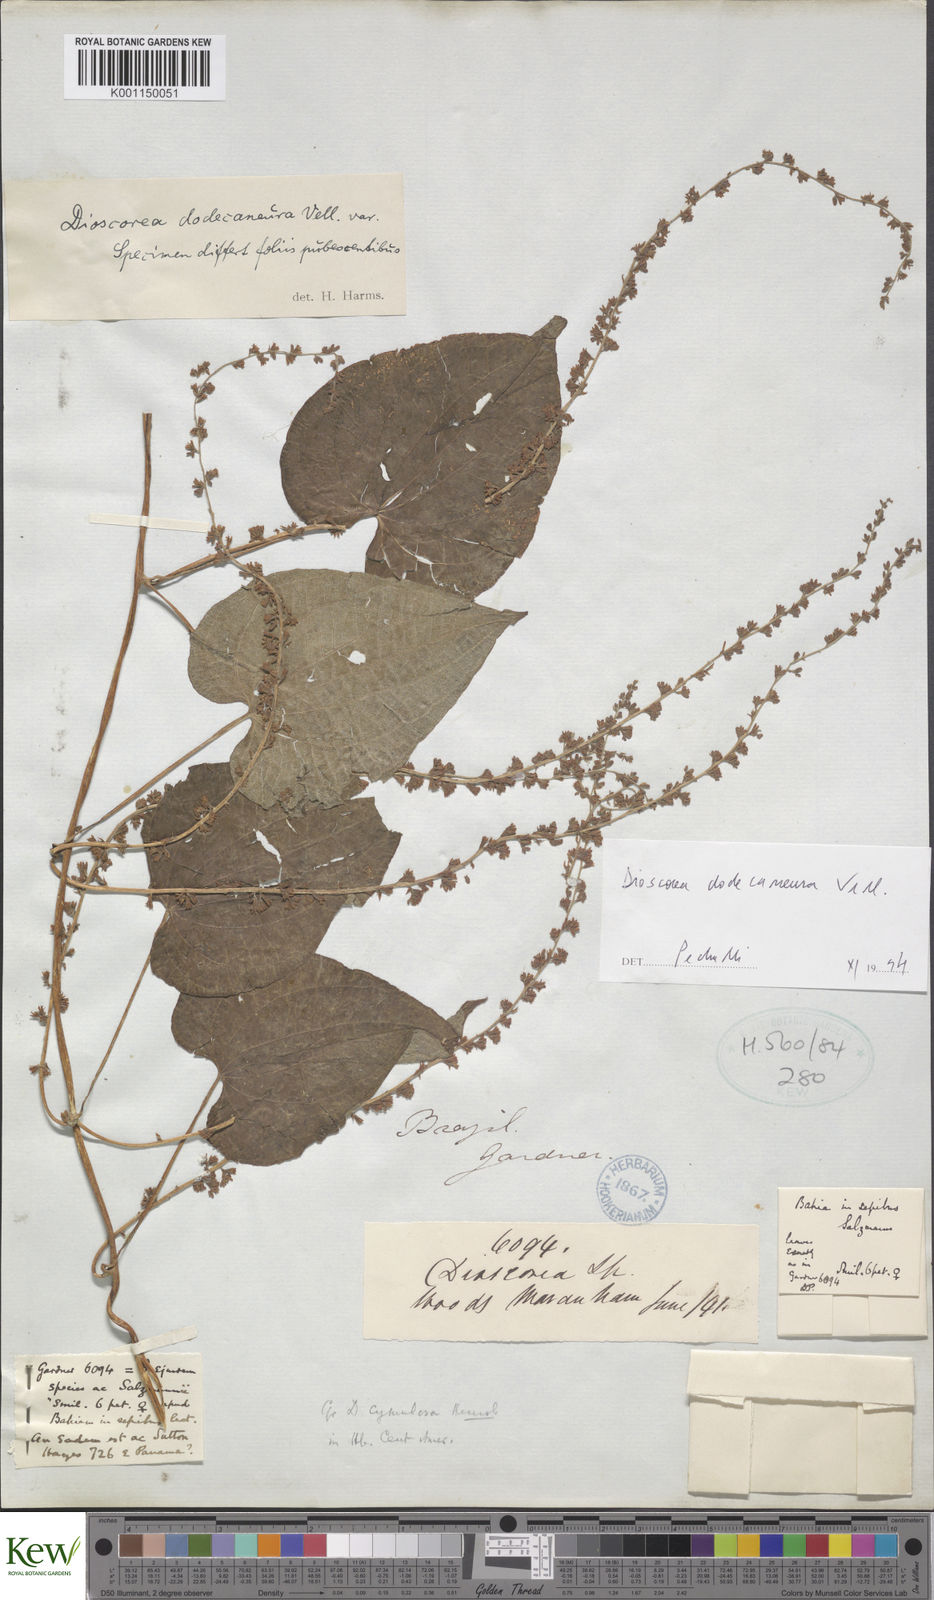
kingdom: Plantae
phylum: Tracheophyta
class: Liliopsida
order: Dioscoreales
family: Dioscoreaceae
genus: Dioscorea
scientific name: Dioscorea dodecaneura
